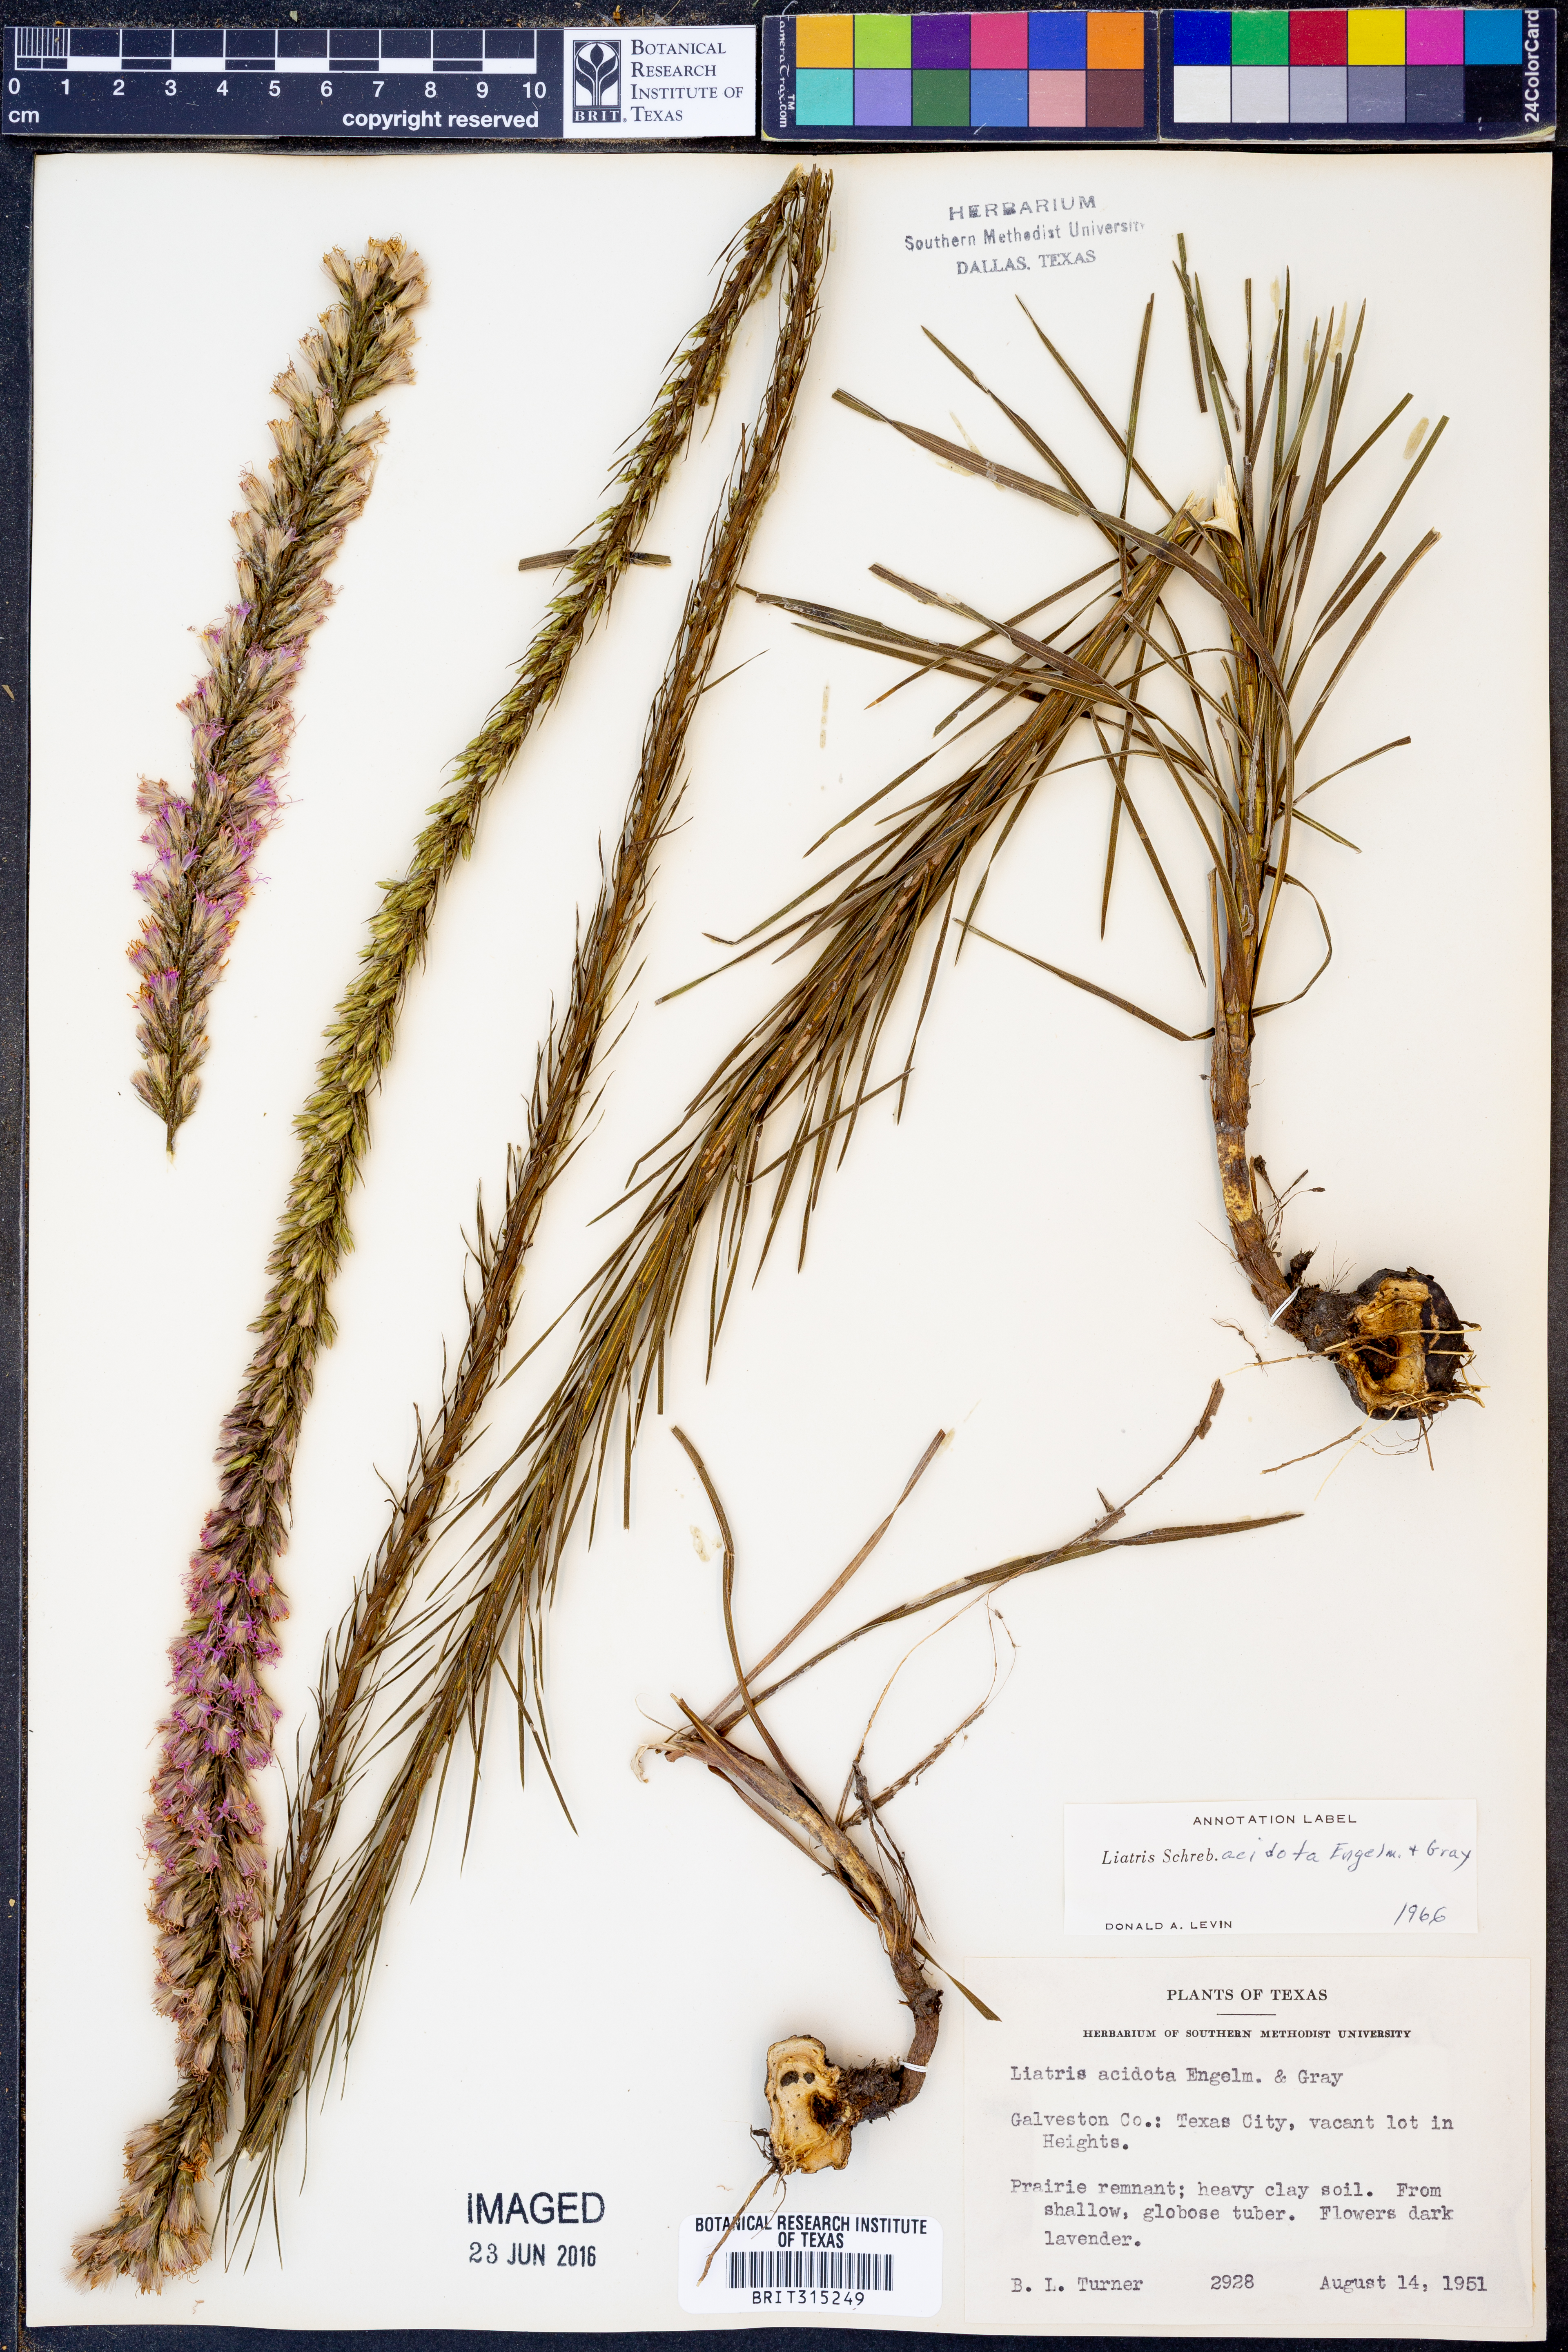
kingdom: Plantae
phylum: Tracheophyta
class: Magnoliopsida
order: Asterales
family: Asteraceae
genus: Liatris
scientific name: Liatris acidota
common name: Gulf coast gayfeather
